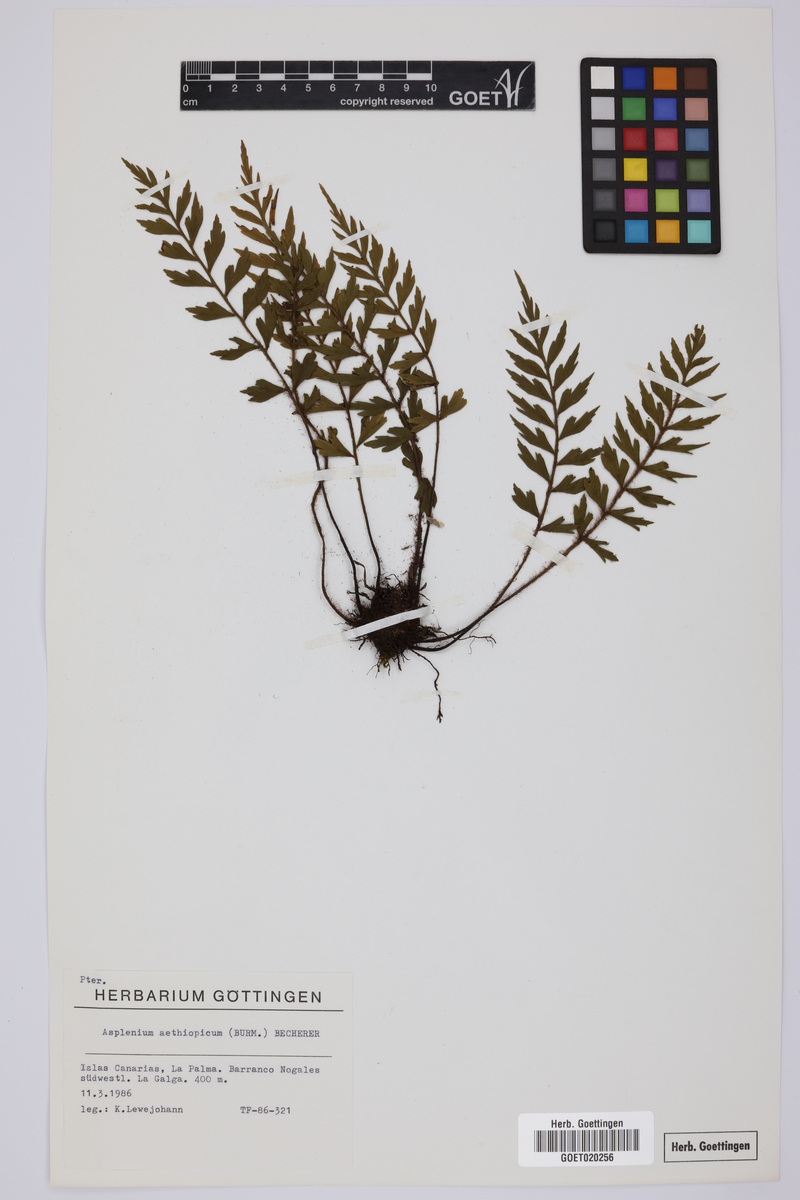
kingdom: Plantae
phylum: Tracheophyta
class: Polypodiopsida
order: Polypodiales
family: Aspleniaceae
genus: Asplenium
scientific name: Asplenium aethiopicum
